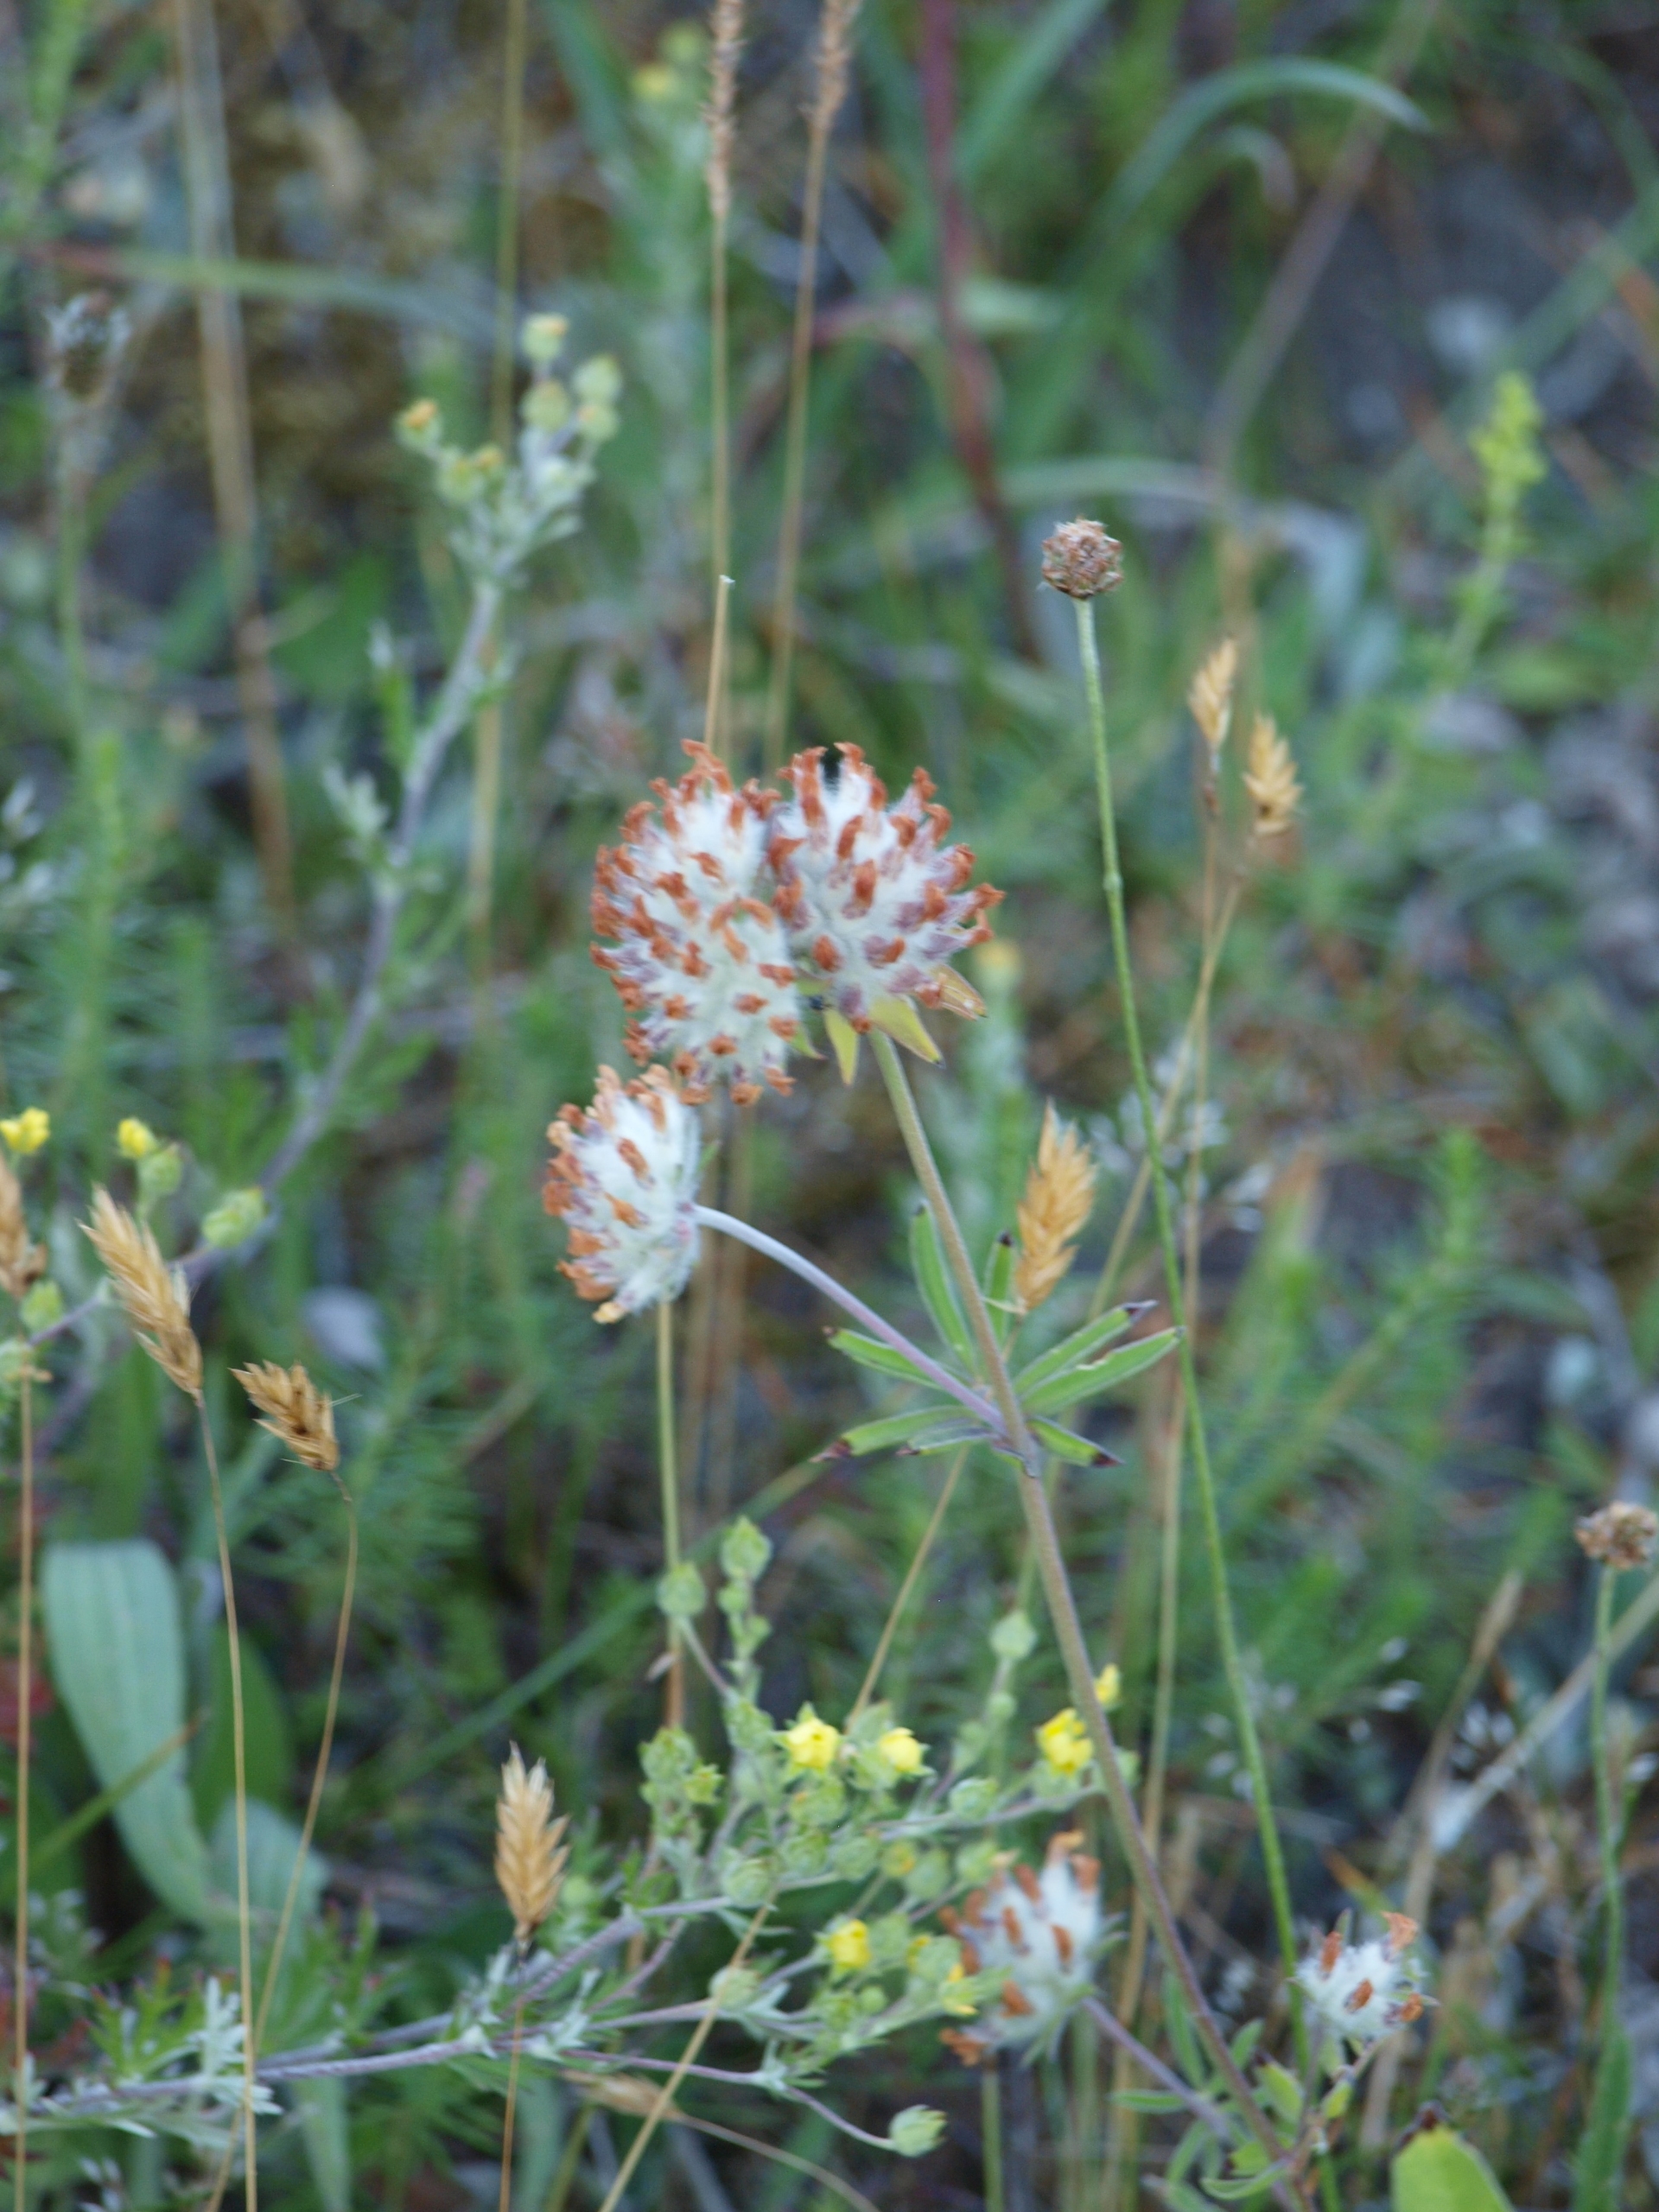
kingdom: Plantae
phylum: Tracheophyta
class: Magnoliopsida
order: Fabales
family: Fabaceae
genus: Anthyllis
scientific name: Anthyllis vulneraria
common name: Rundbælg
